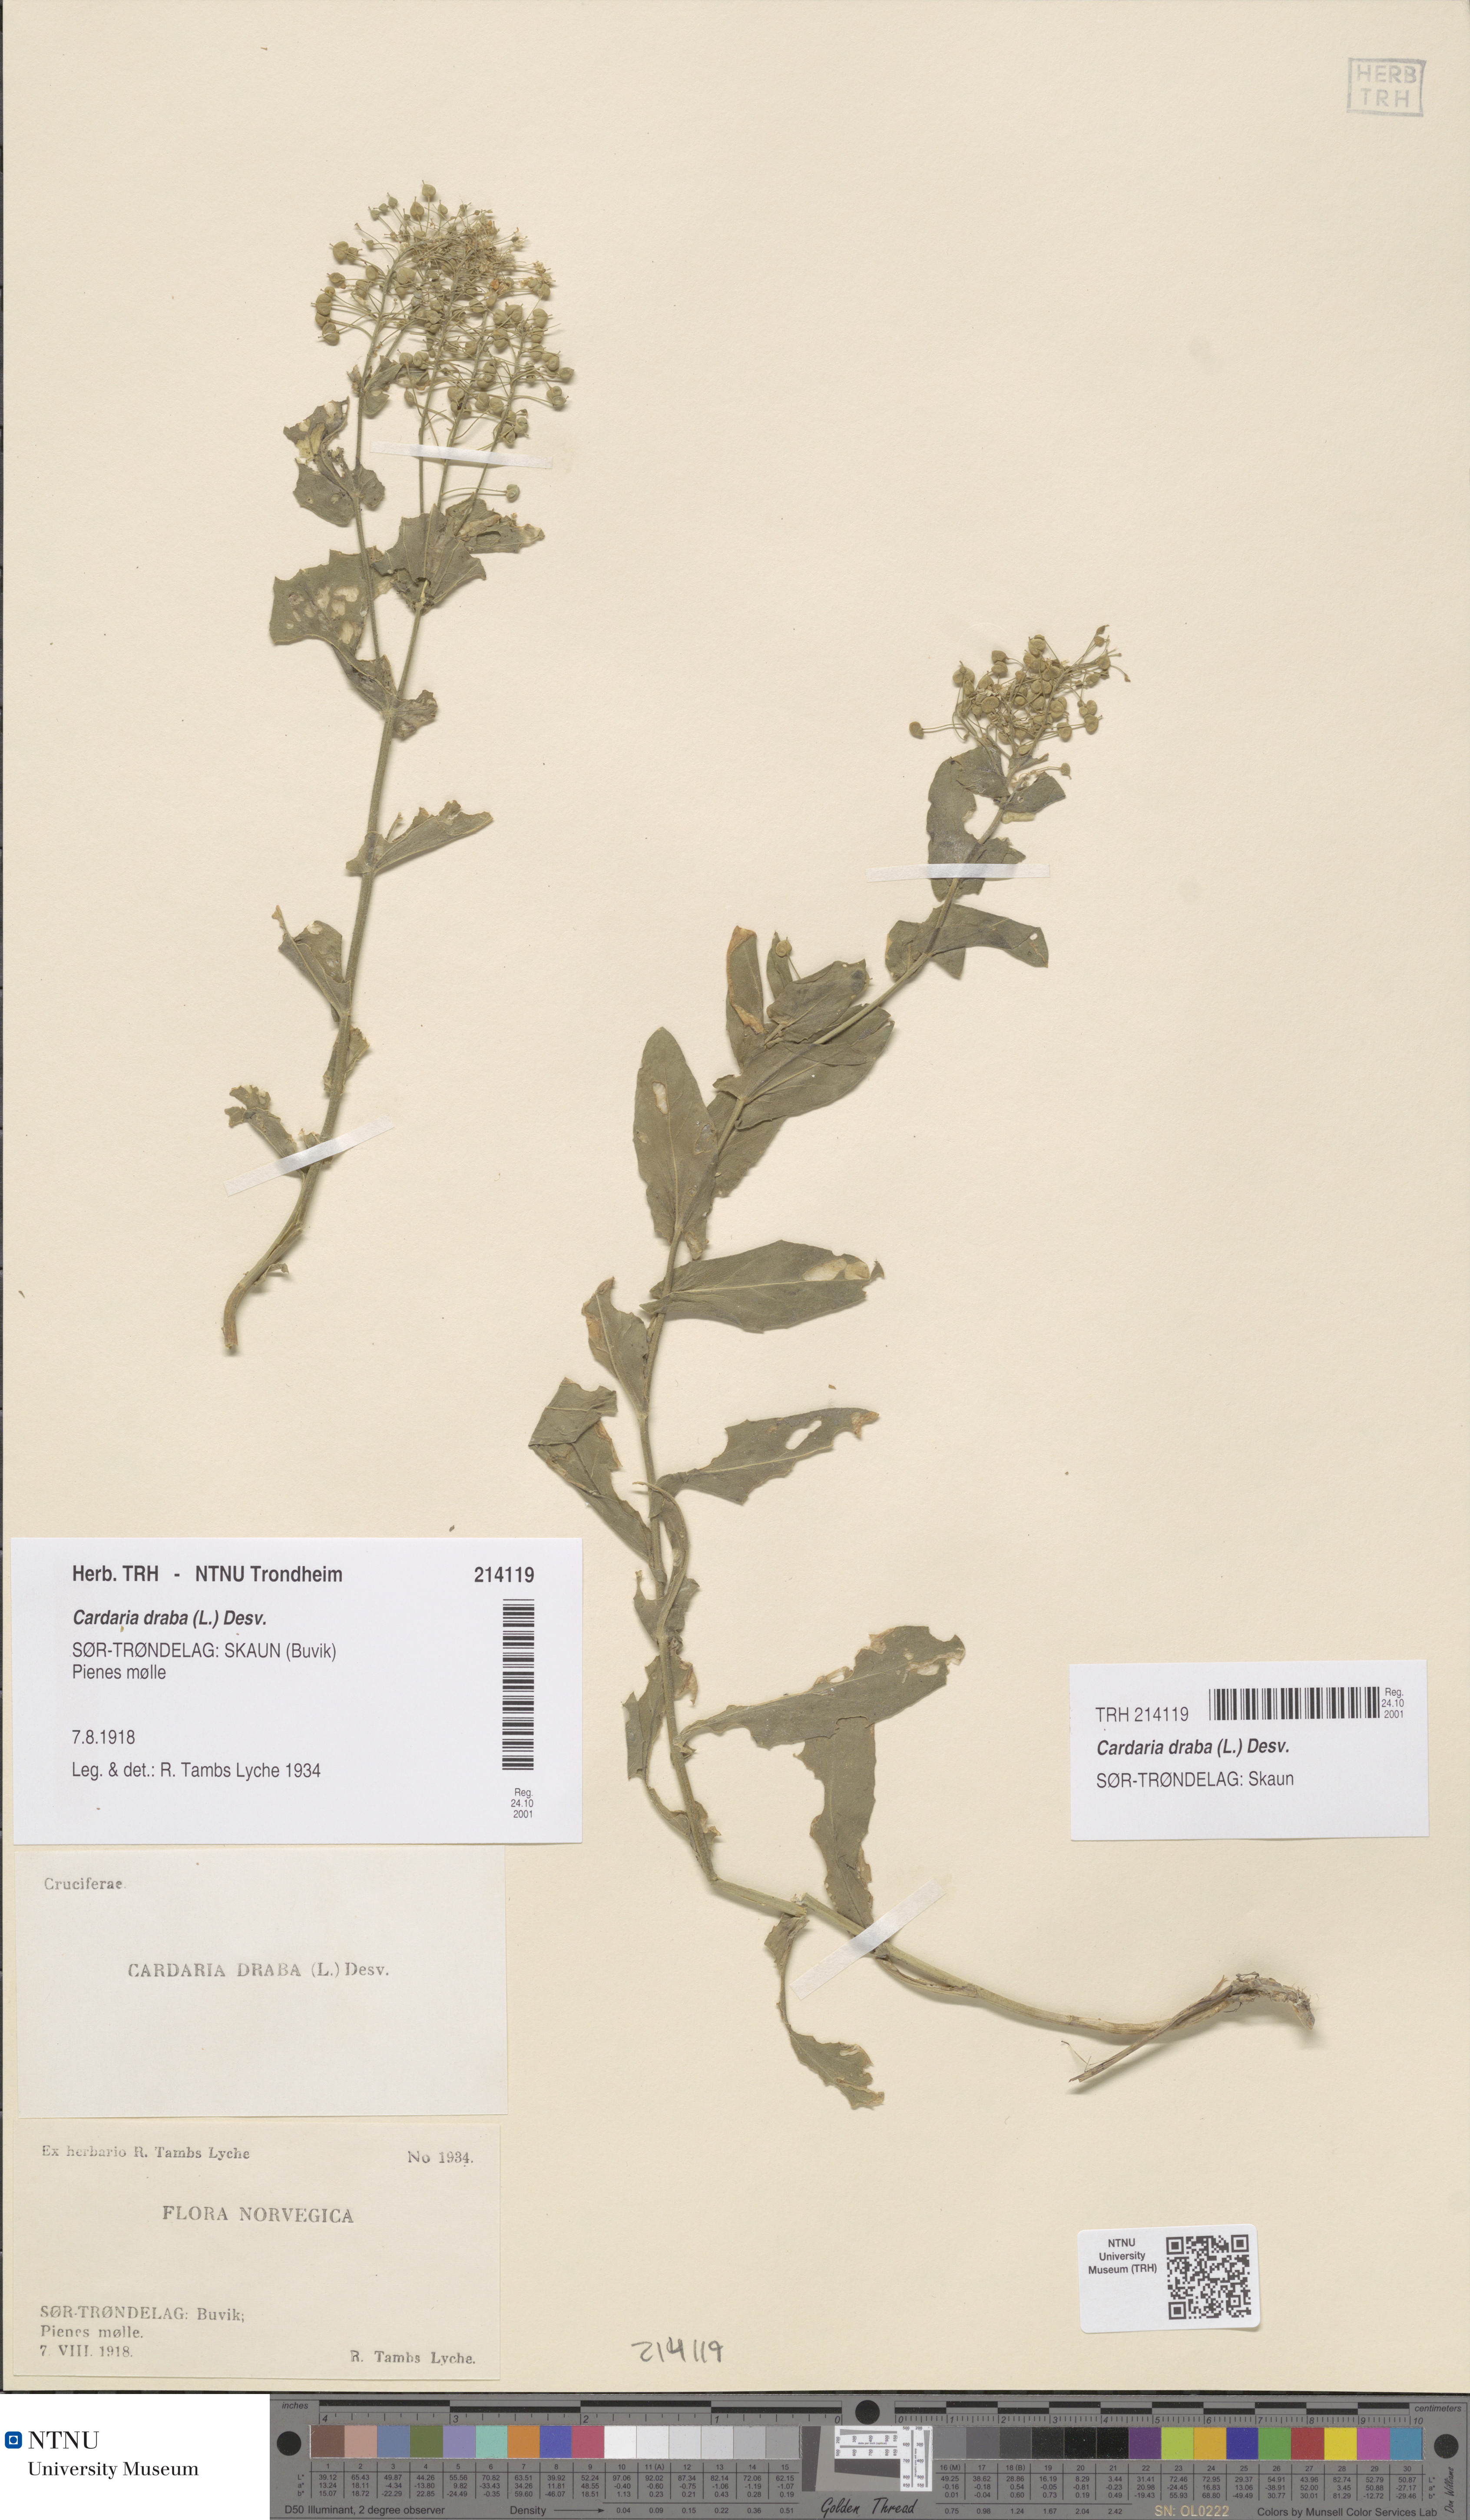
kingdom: Plantae
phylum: Tracheophyta
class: Magnoliopsida
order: Brassicales
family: Brassicaceae
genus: Lepidium
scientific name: Lepidium draba
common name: Hoary cress
